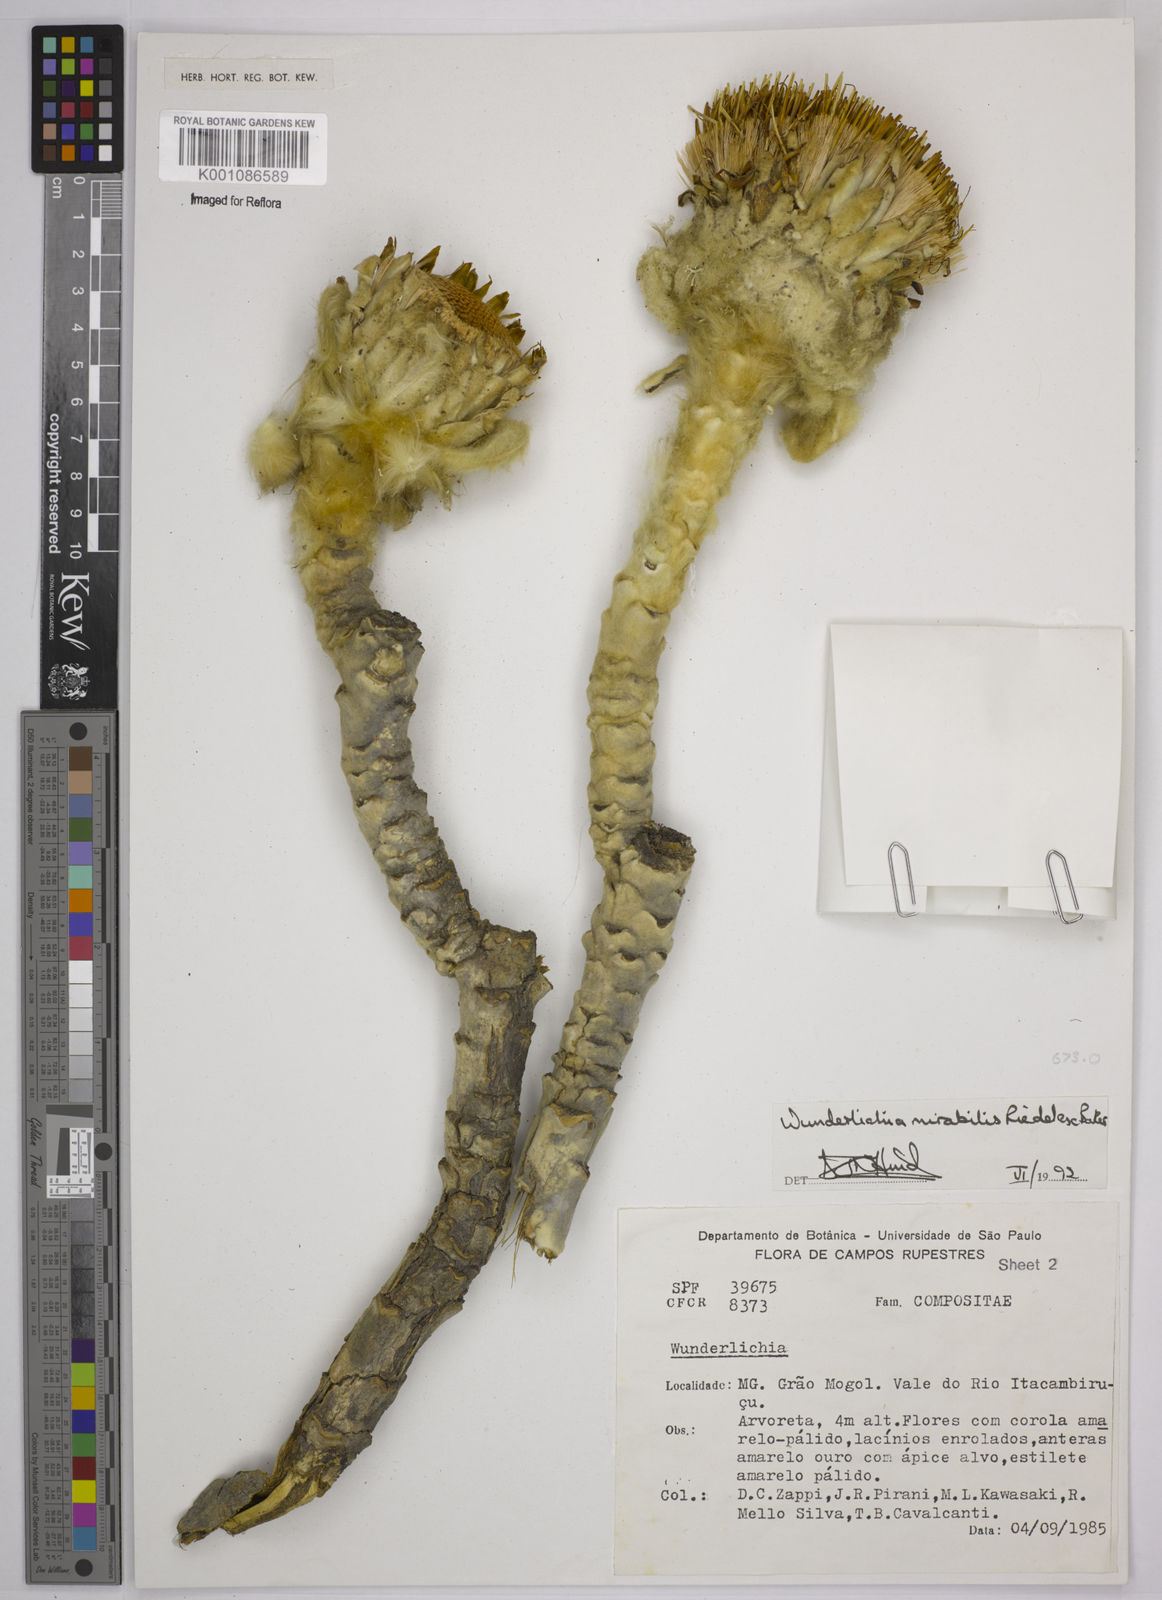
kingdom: Plantae
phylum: Tracheophyta
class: Magnoliopsida
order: Asterales
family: Asteraceae
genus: Wunderlichia
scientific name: Wunderlichia mirabilis
